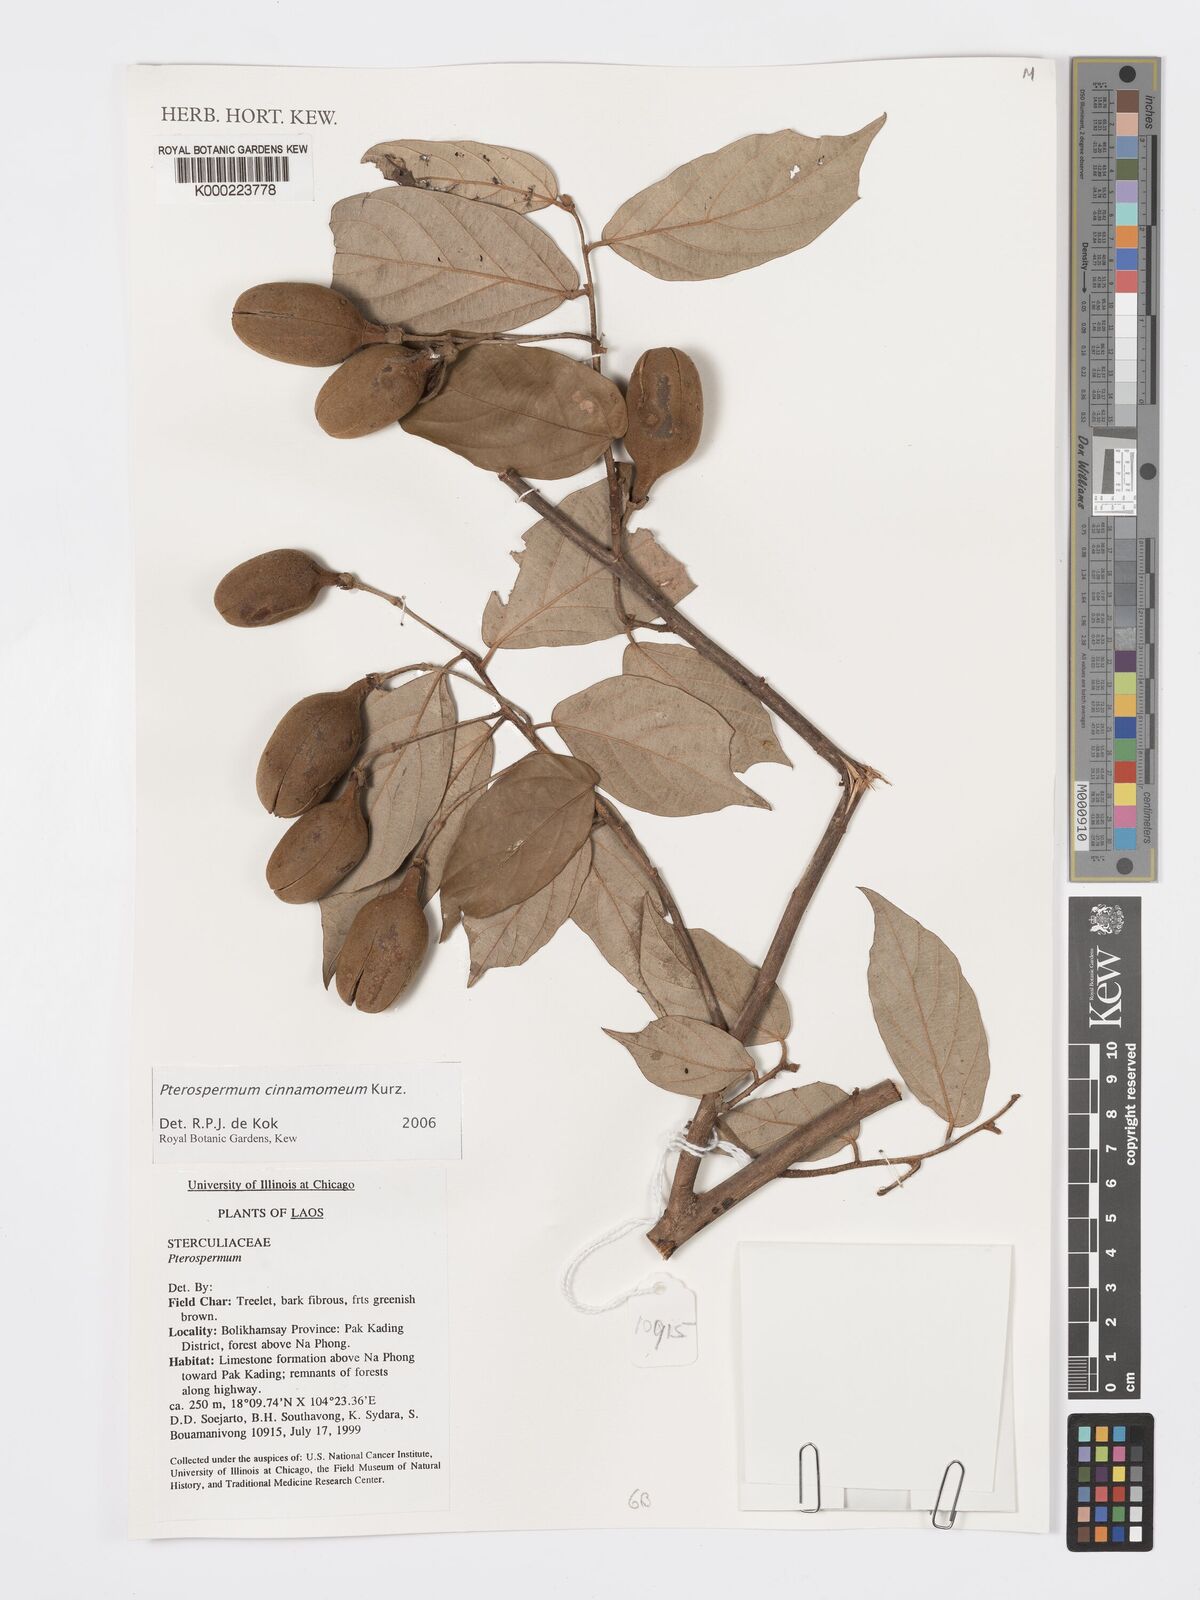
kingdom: Plantae
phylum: Tracheophyta
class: Magnoliopsida
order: Malvales
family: Malvaceae
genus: Pterospermum
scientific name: Pterospermum cinnamomeum
